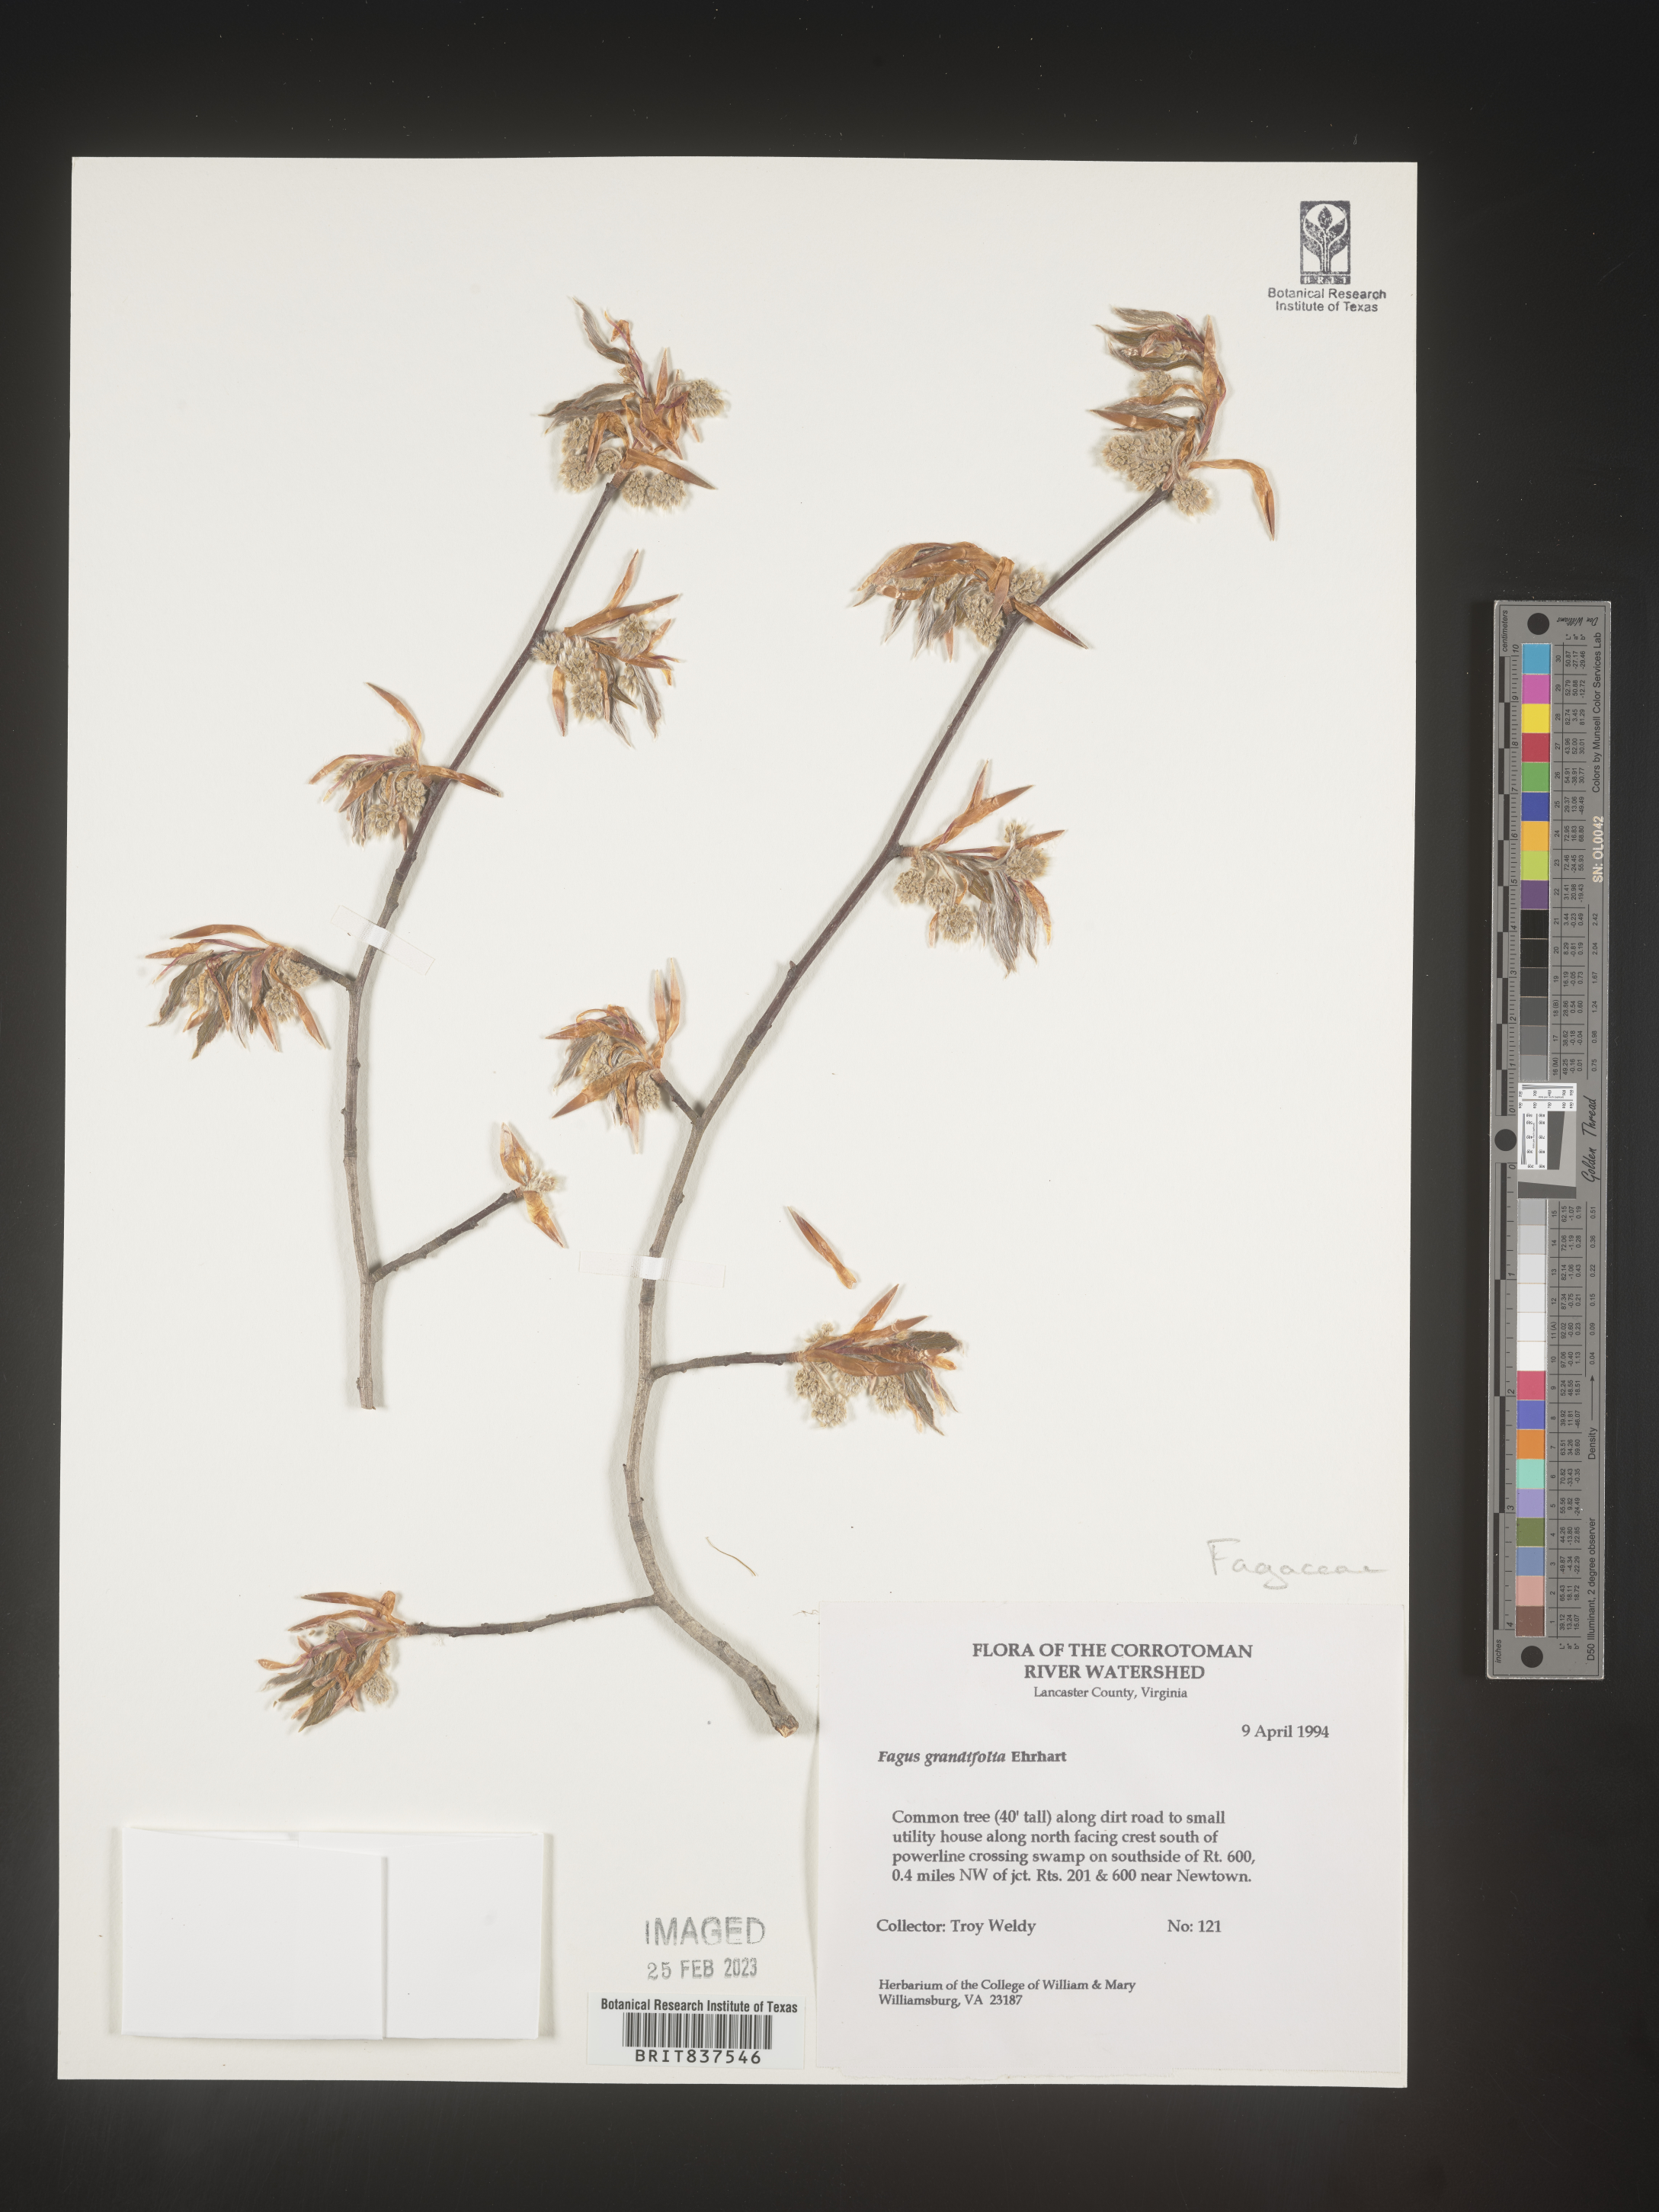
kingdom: Plantae
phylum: Tracheophyta
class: Magnoliopsida
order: Fagales
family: Fagaceae
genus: Fagus
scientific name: Fagus grandifolia
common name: American beech
